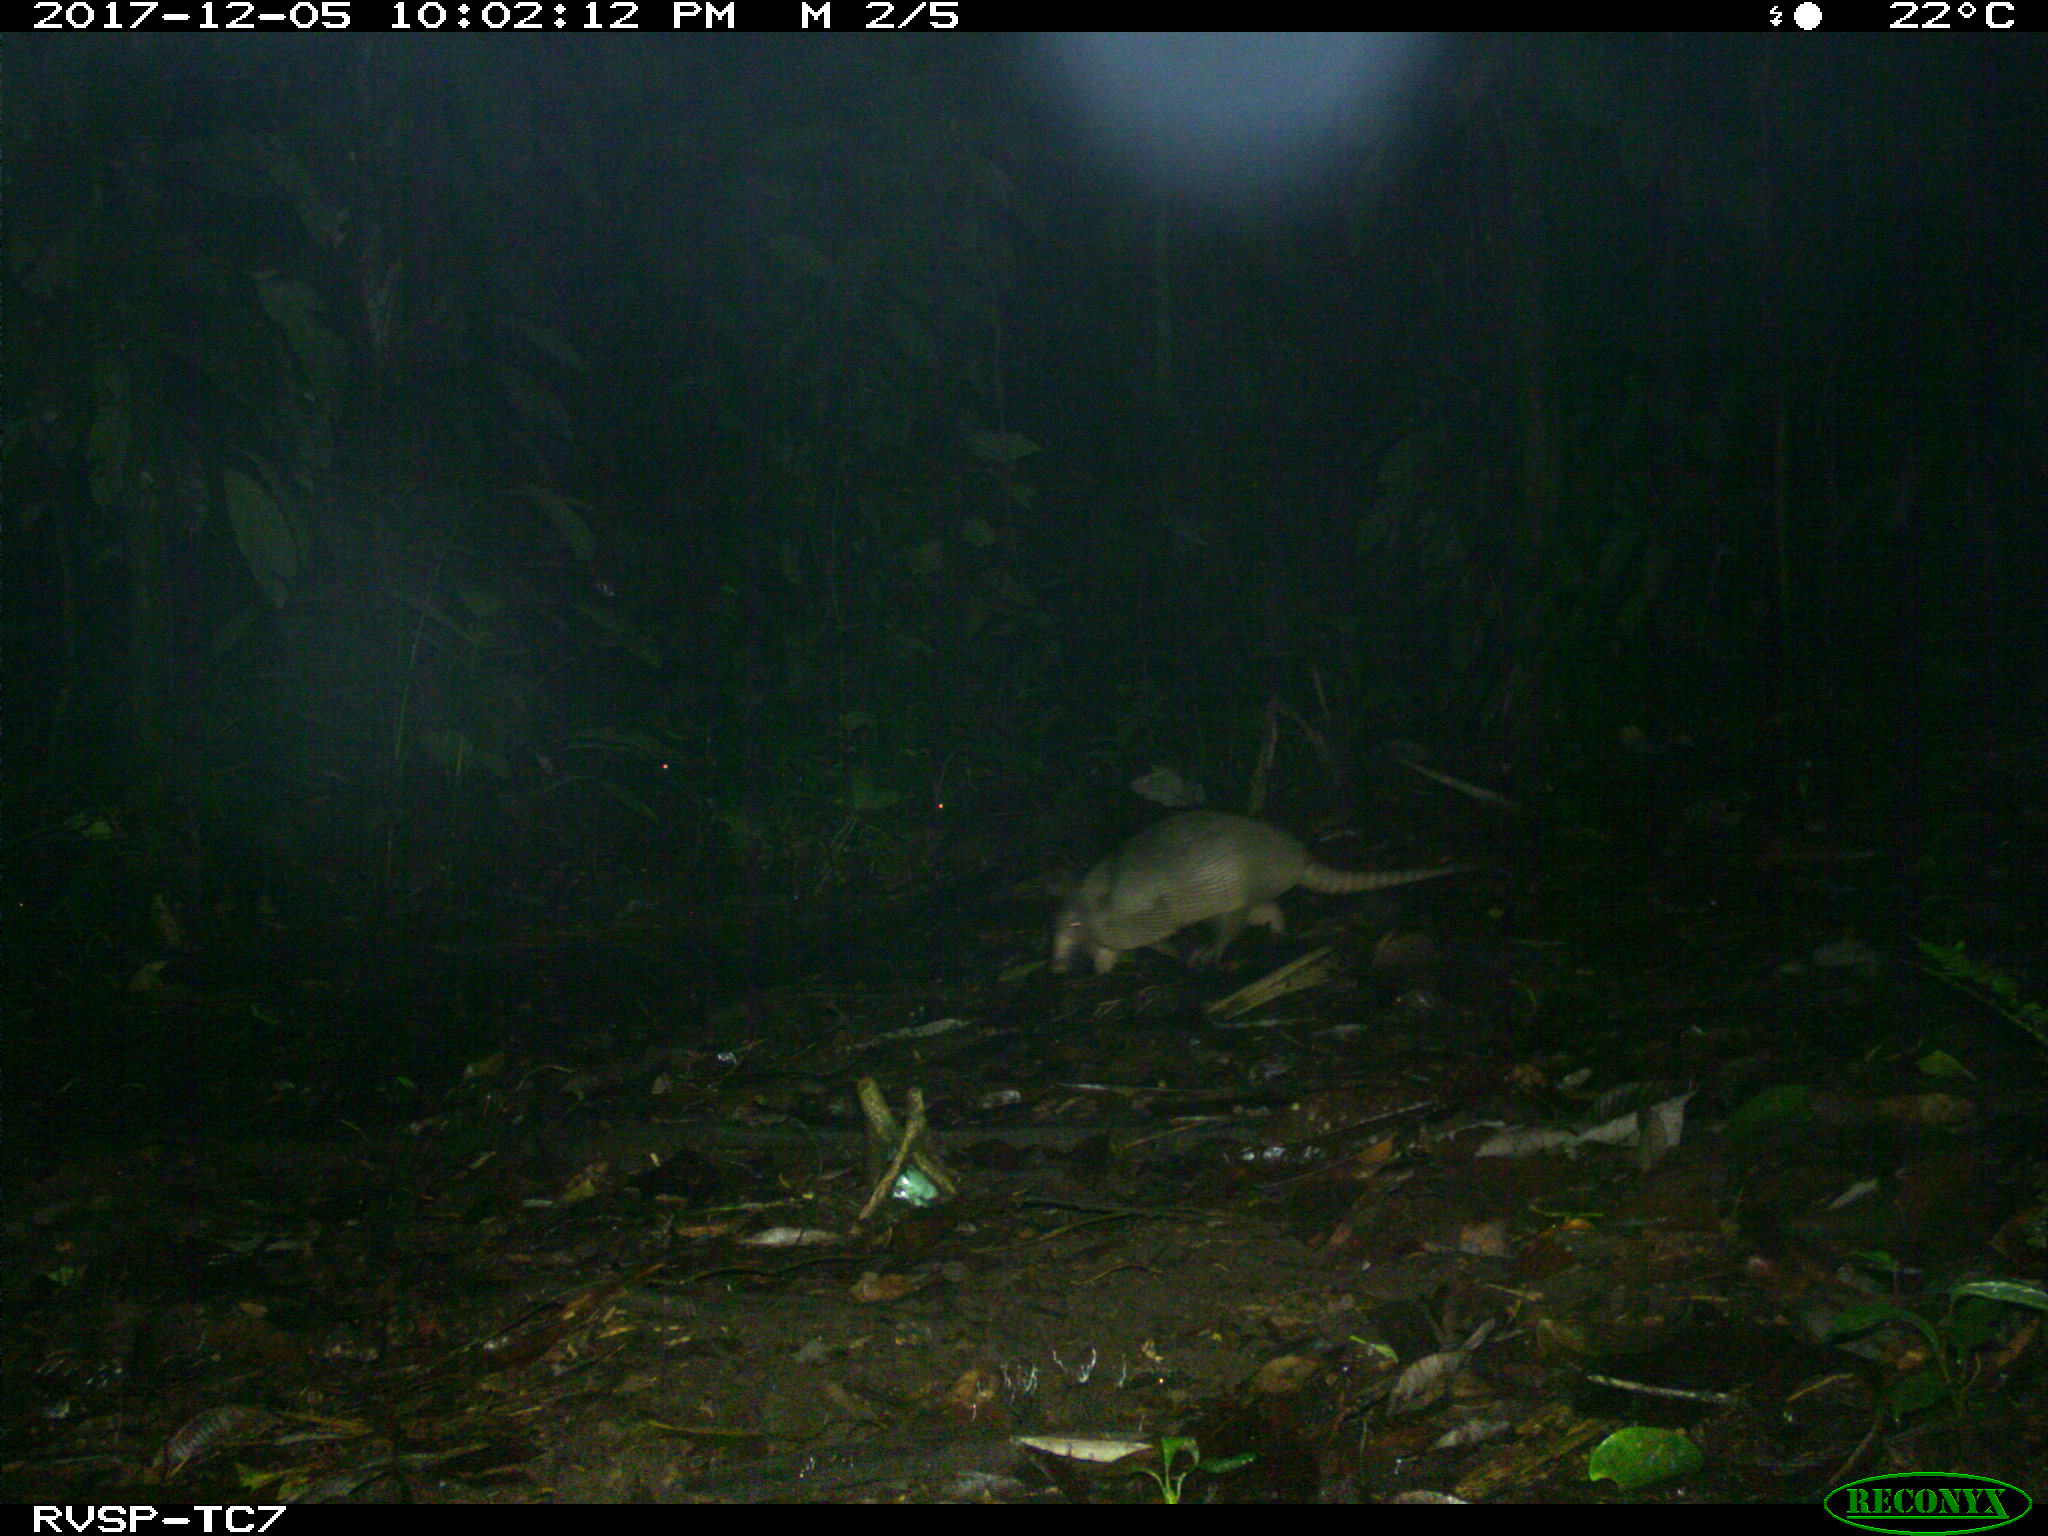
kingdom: Animalia
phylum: Chordata
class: Mammalia
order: Cingulata
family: Dasypodidae
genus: Dasypus
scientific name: Dasypus novemcinctus
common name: Nine-banded armadillo
